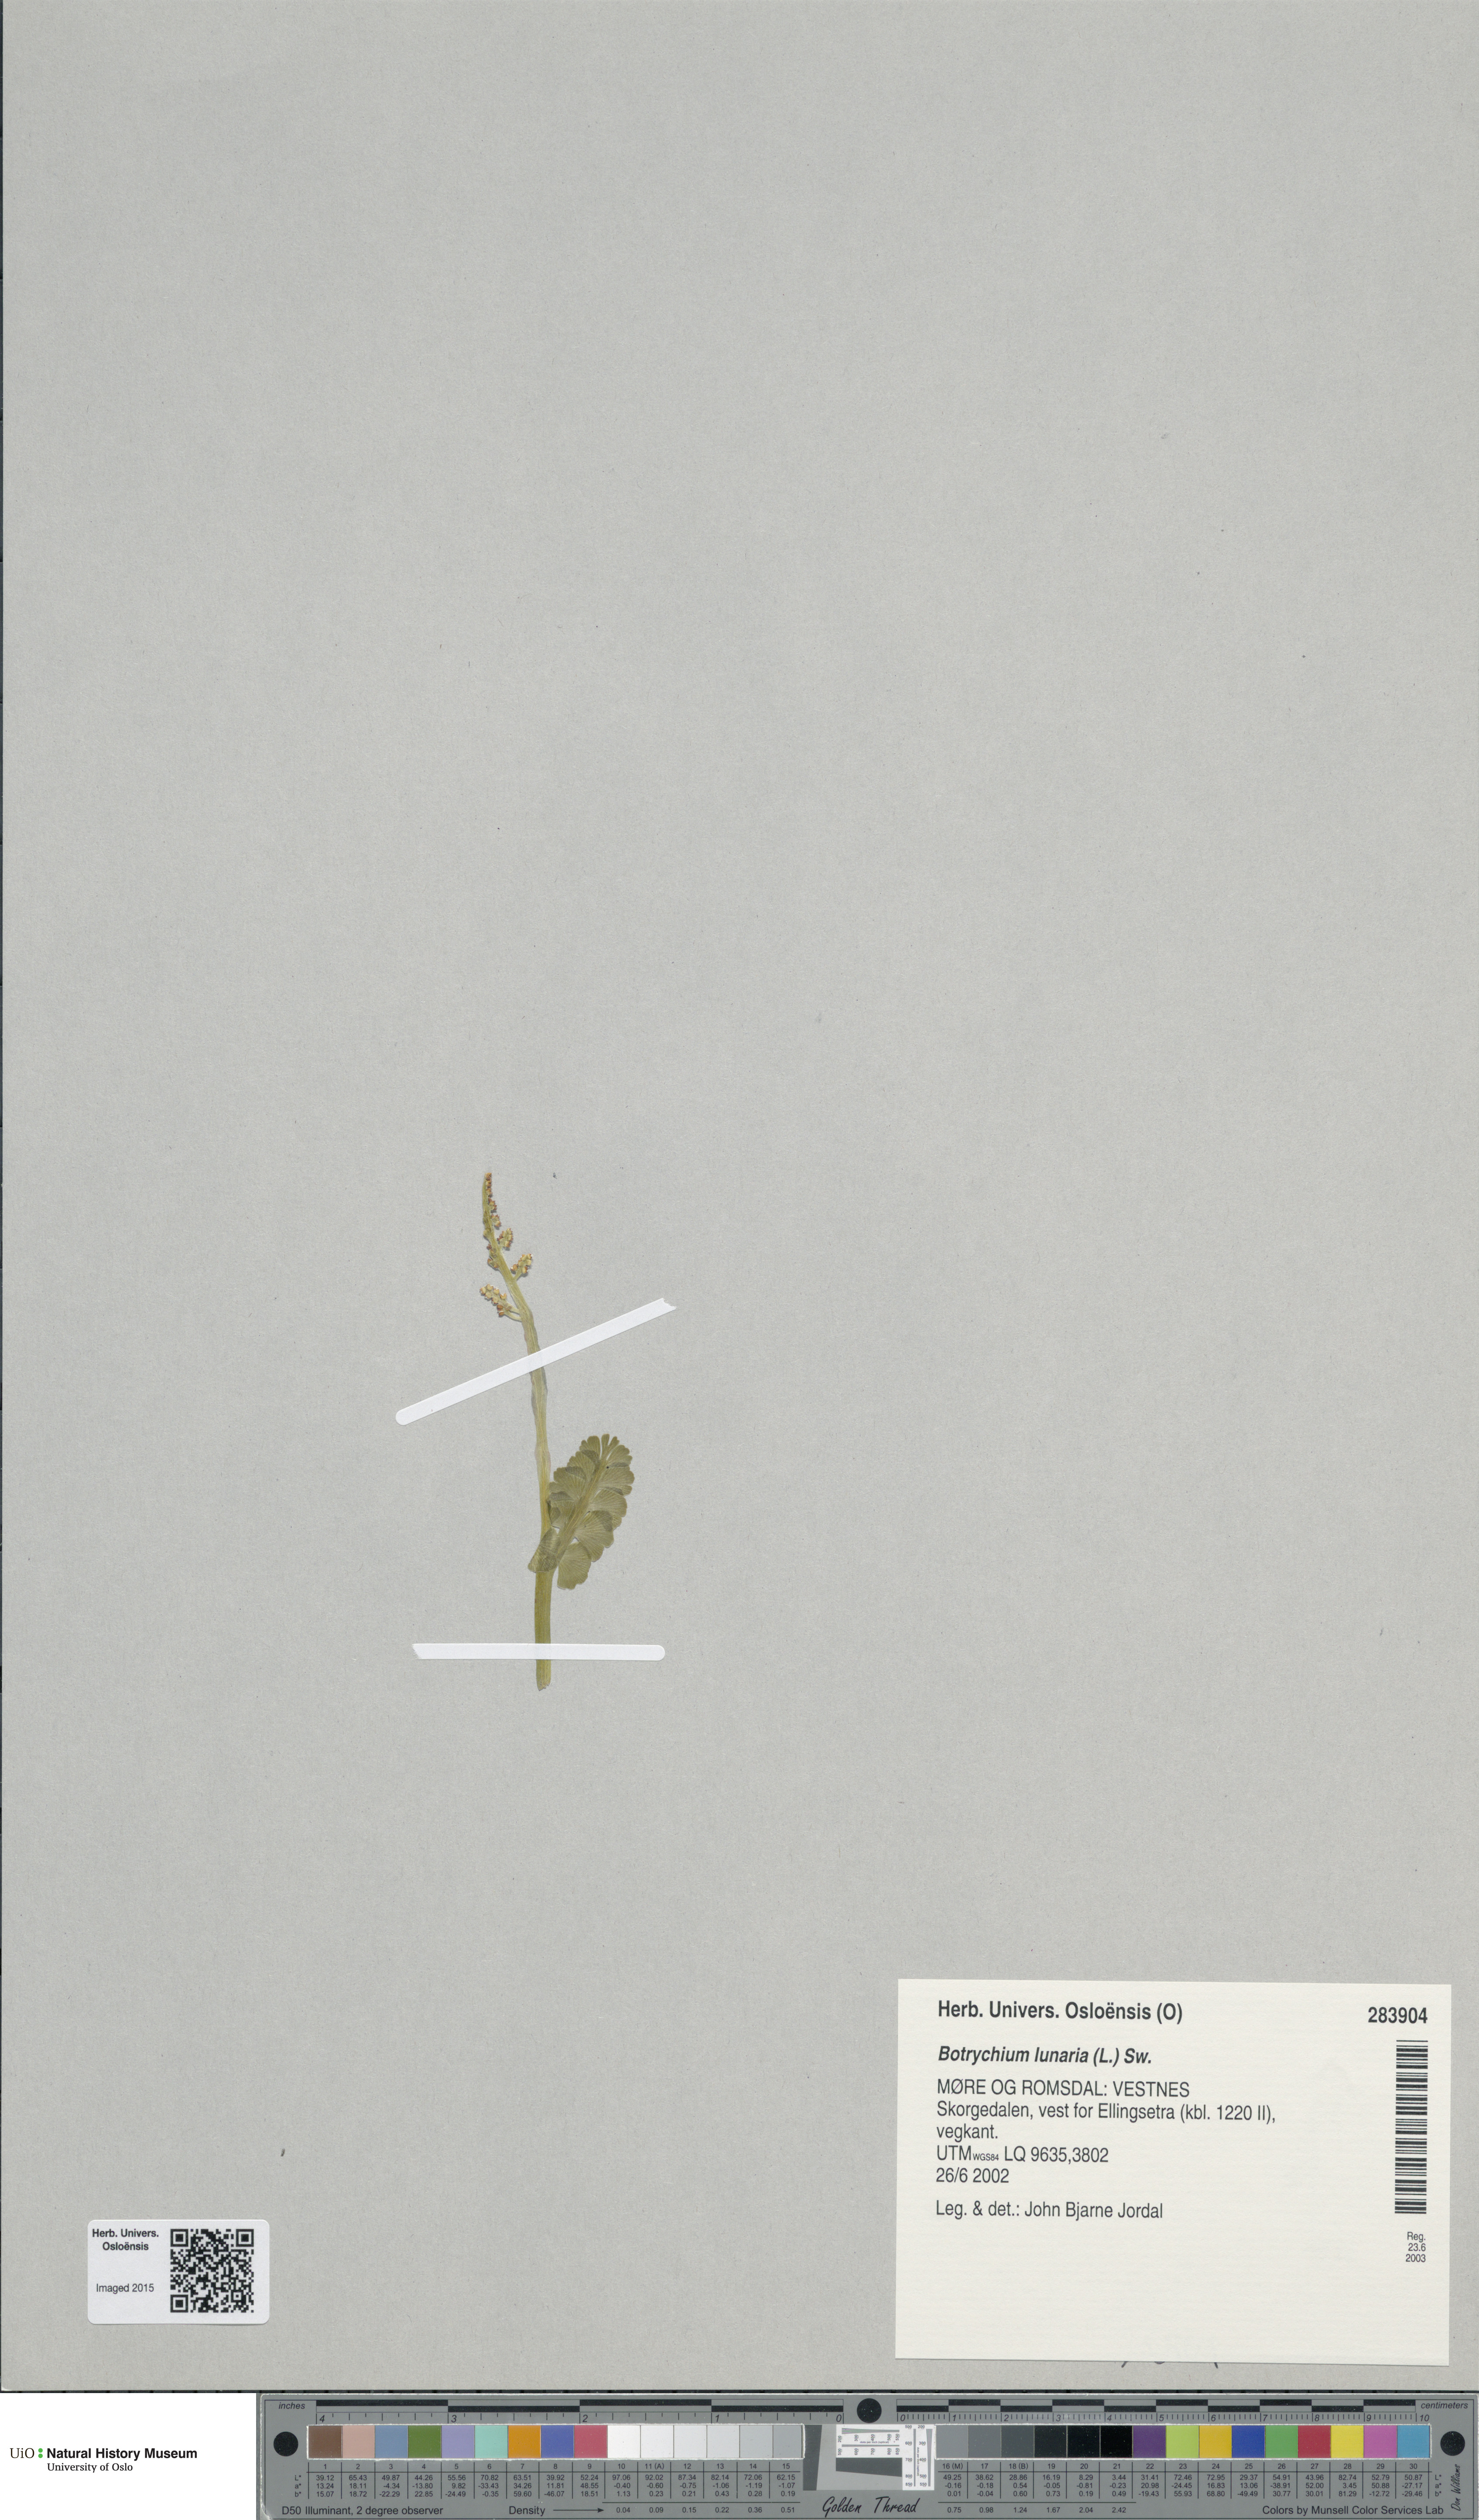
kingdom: Plantae
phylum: Tracheophyta
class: Polypodiopsida
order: Ophioglossales
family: Ophioglossaceae
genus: Botrychium
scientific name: Botrychium lunaria
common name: Moonwort
